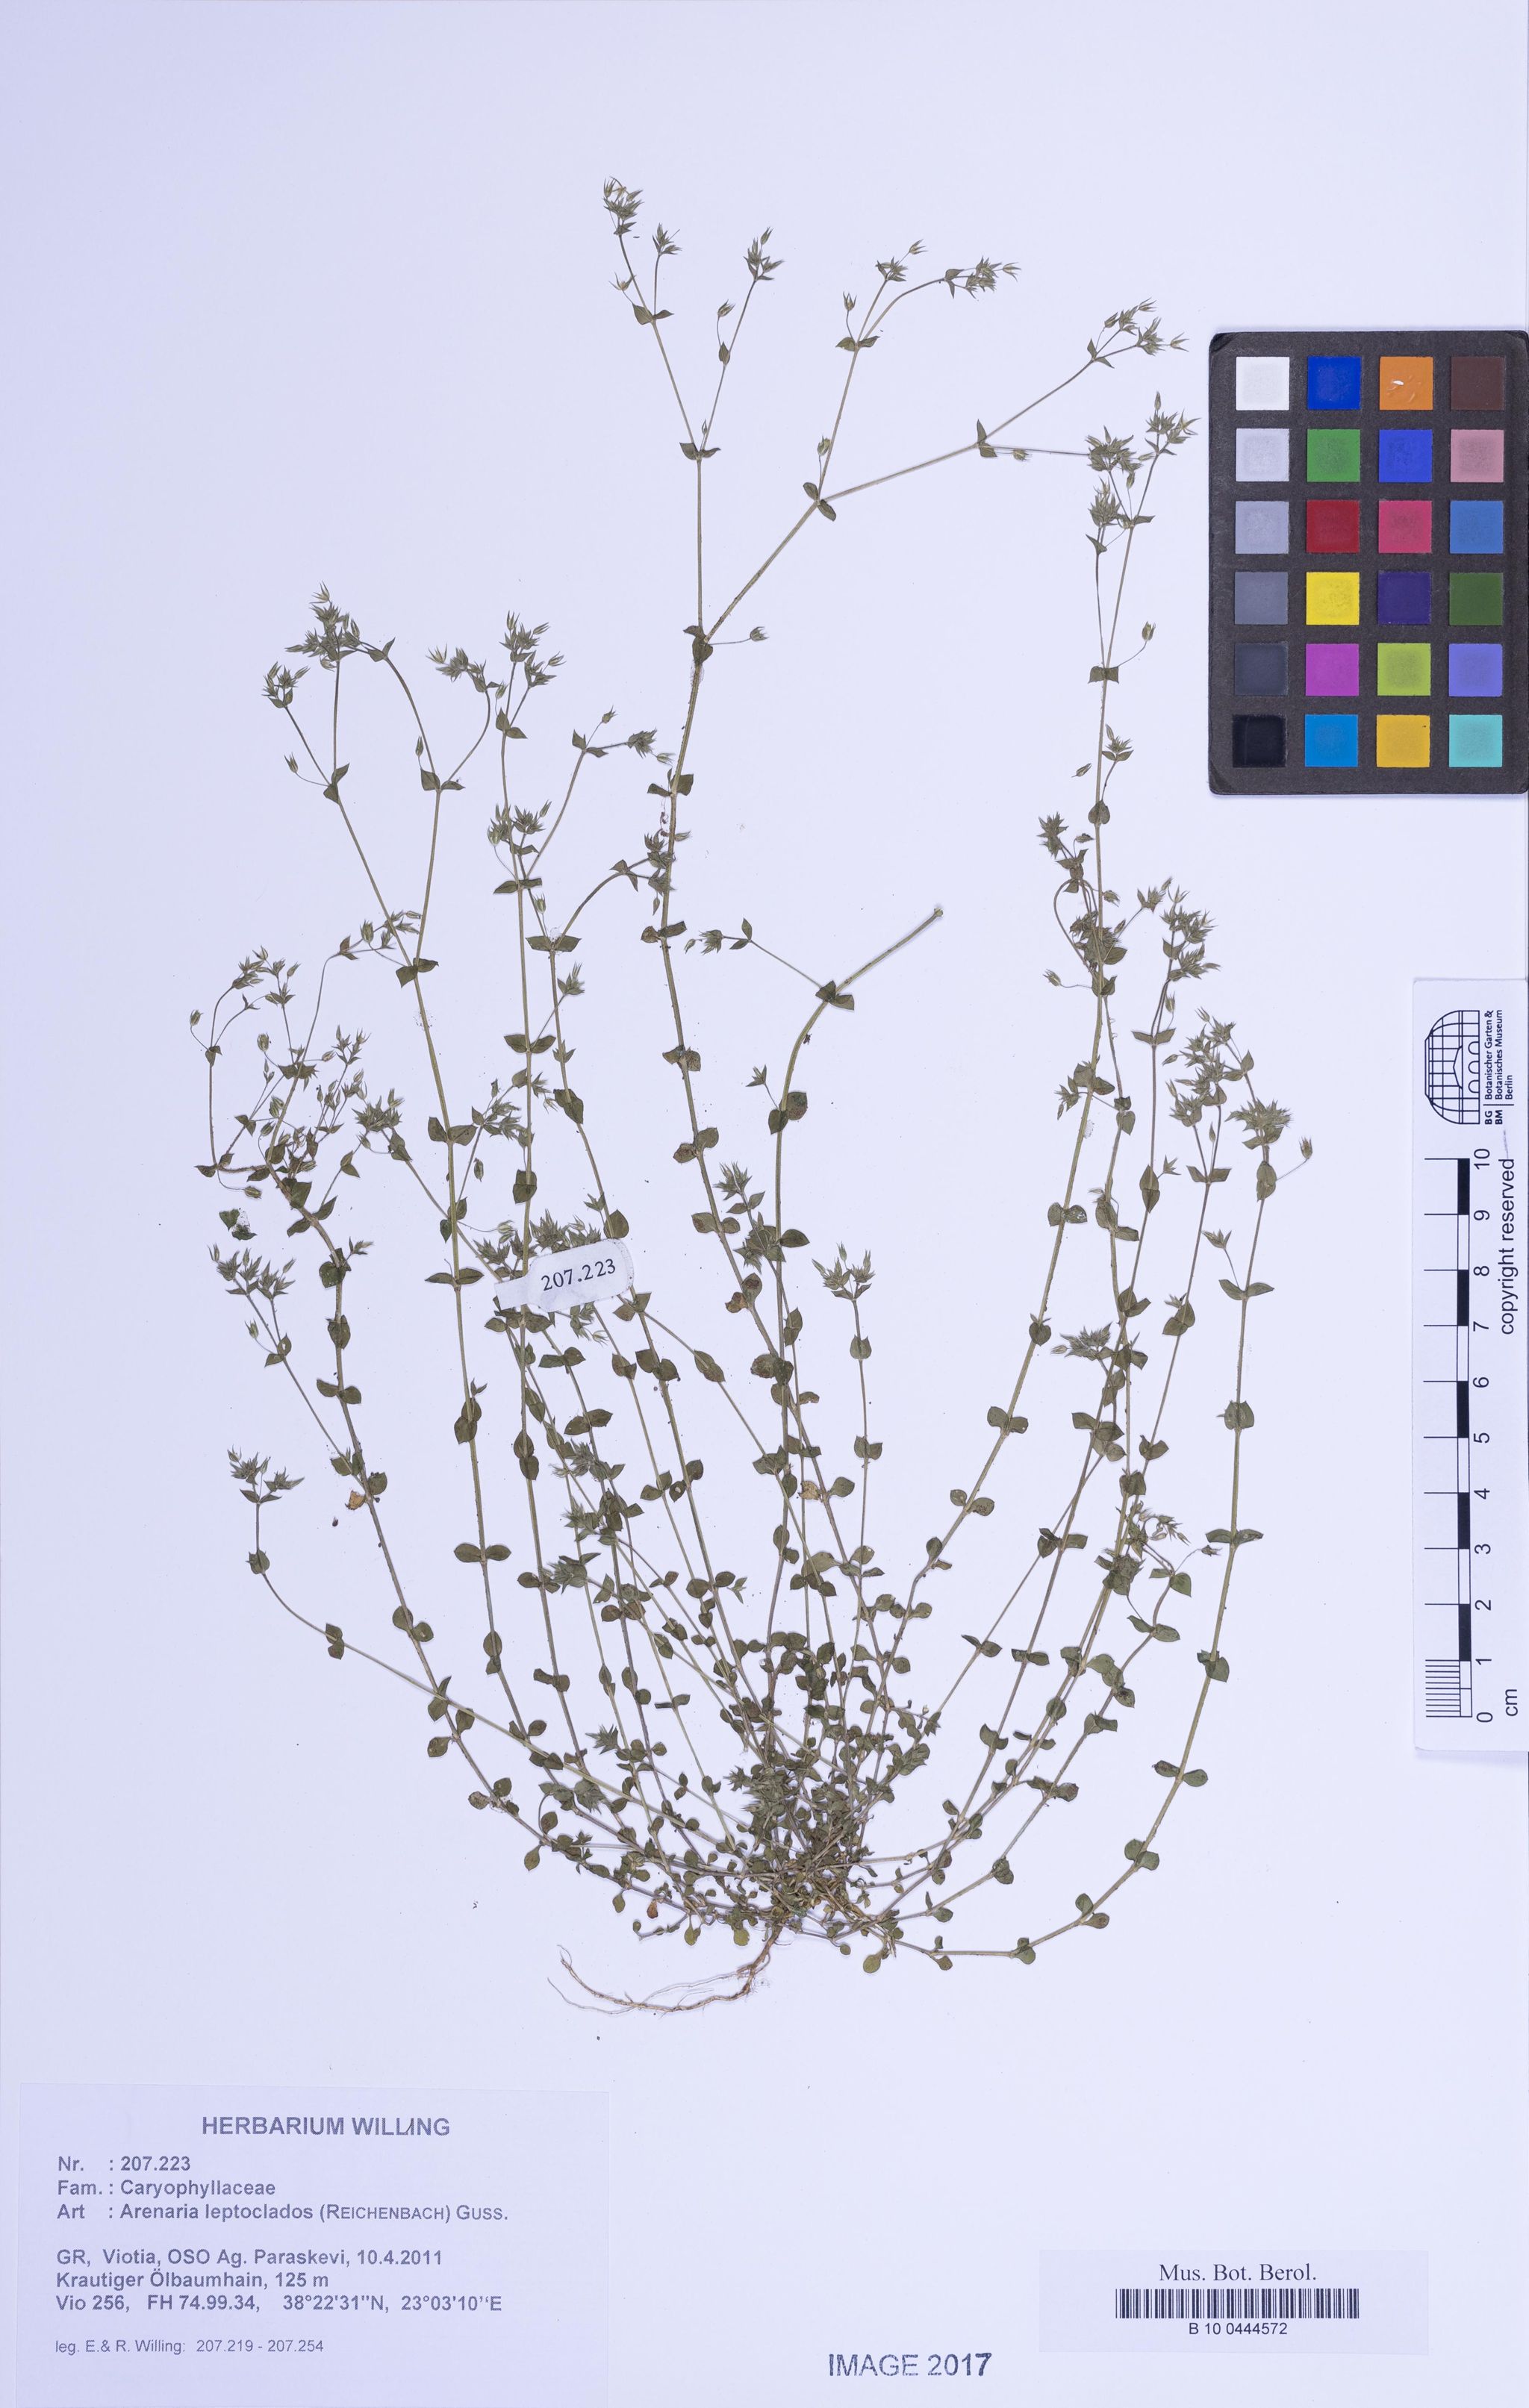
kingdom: Plantae
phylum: Tracheophyta
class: Magnoliopsida
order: Caryophyllales
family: Caryophyllaceae
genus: Arenaria
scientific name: Arenaria leptoclados
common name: Thyme-leaved sandwort
